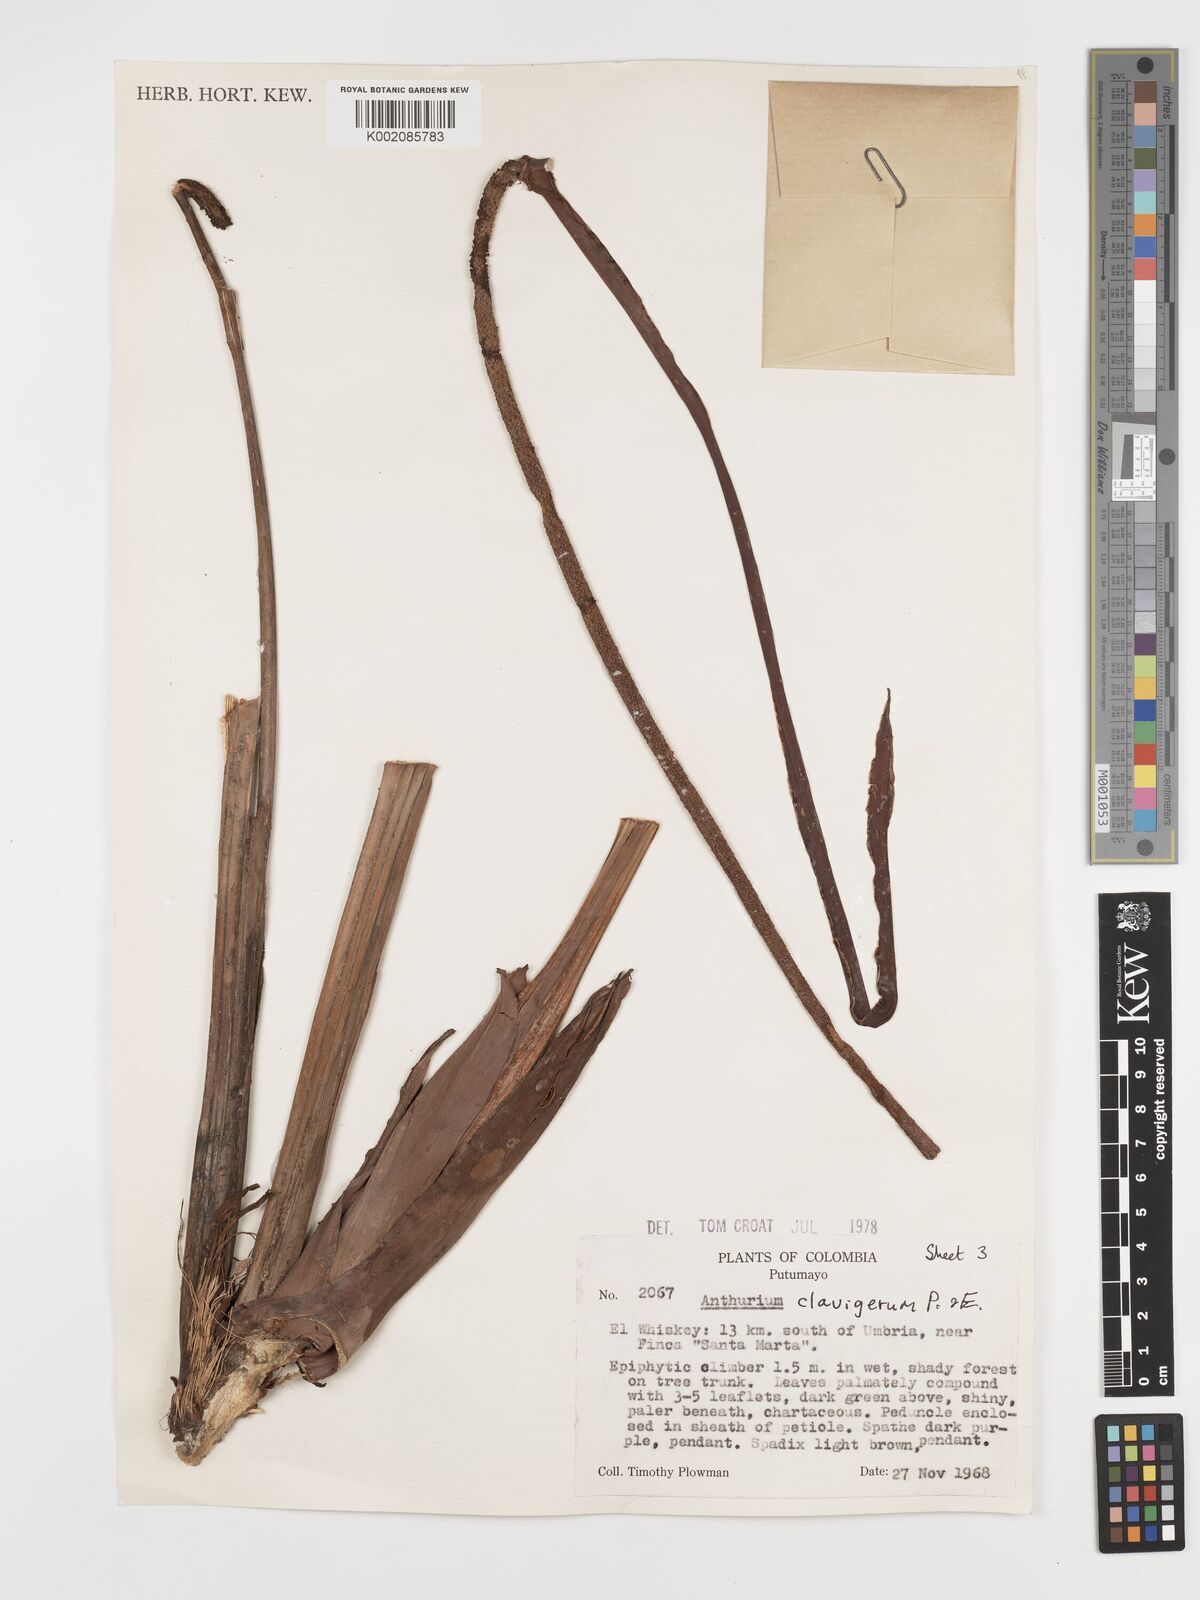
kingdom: Plantae
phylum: Tracheophyta
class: Liliopsida
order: Alismatales
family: Araceae
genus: Anthurium
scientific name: Anthurium clavigerum
